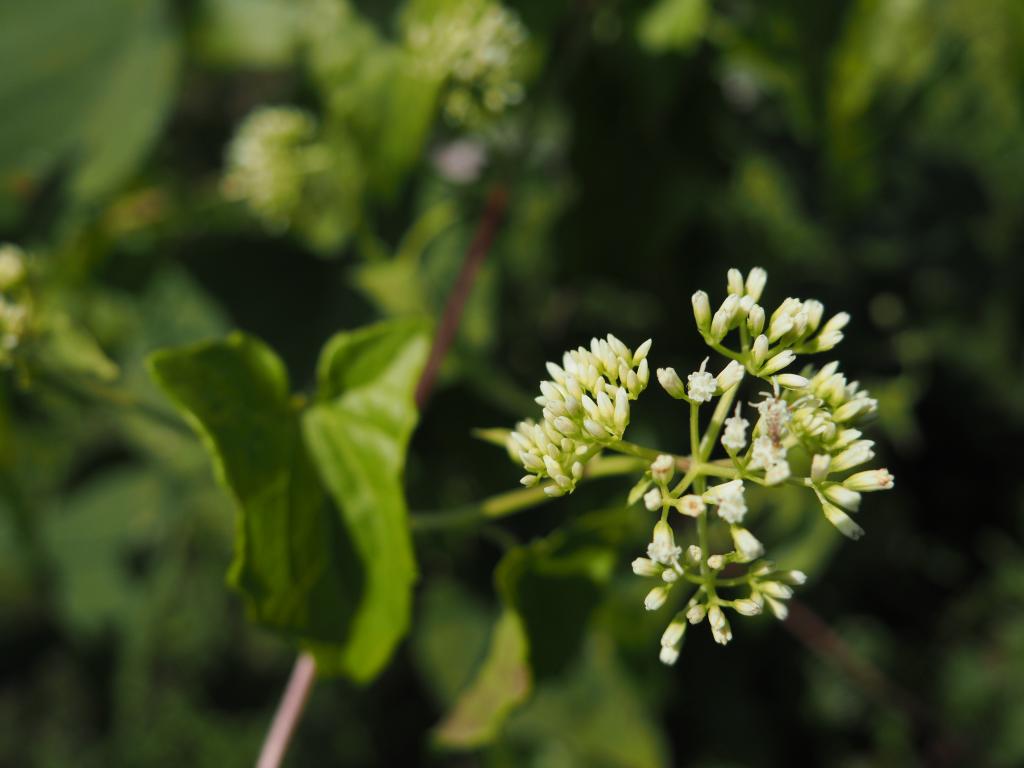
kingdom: Plantae
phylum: Tracheophyta
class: Magnoliopsida
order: Asterales
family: Asteraceae
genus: Mikania
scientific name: Mikania micrantha
